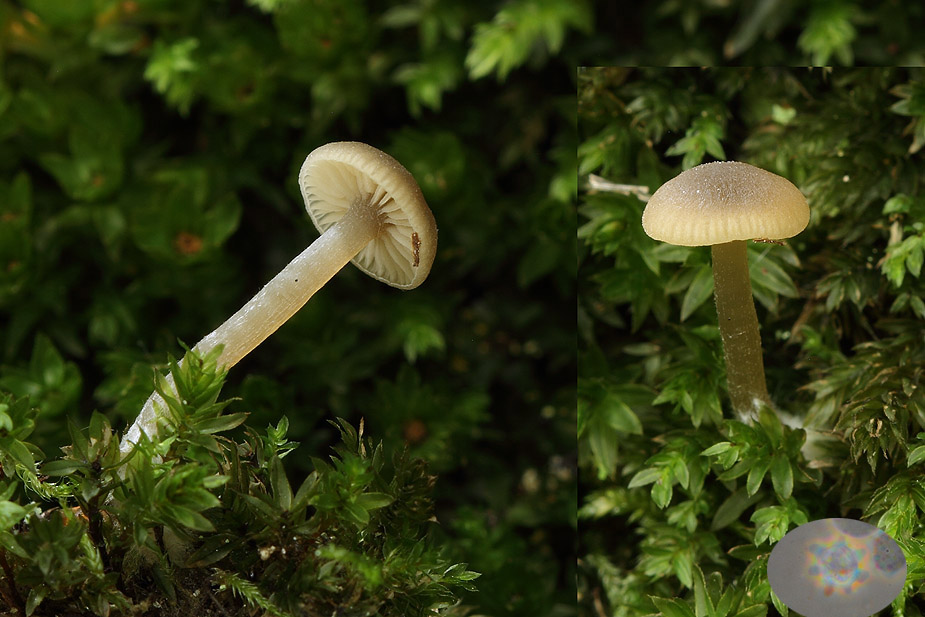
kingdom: Fungi
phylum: Basidiomycota
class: Agaricomycetes
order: Agaricales
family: Tricholomataceae
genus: Omphaliaster
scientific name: Omphaliaster asterosporus
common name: narrehat
